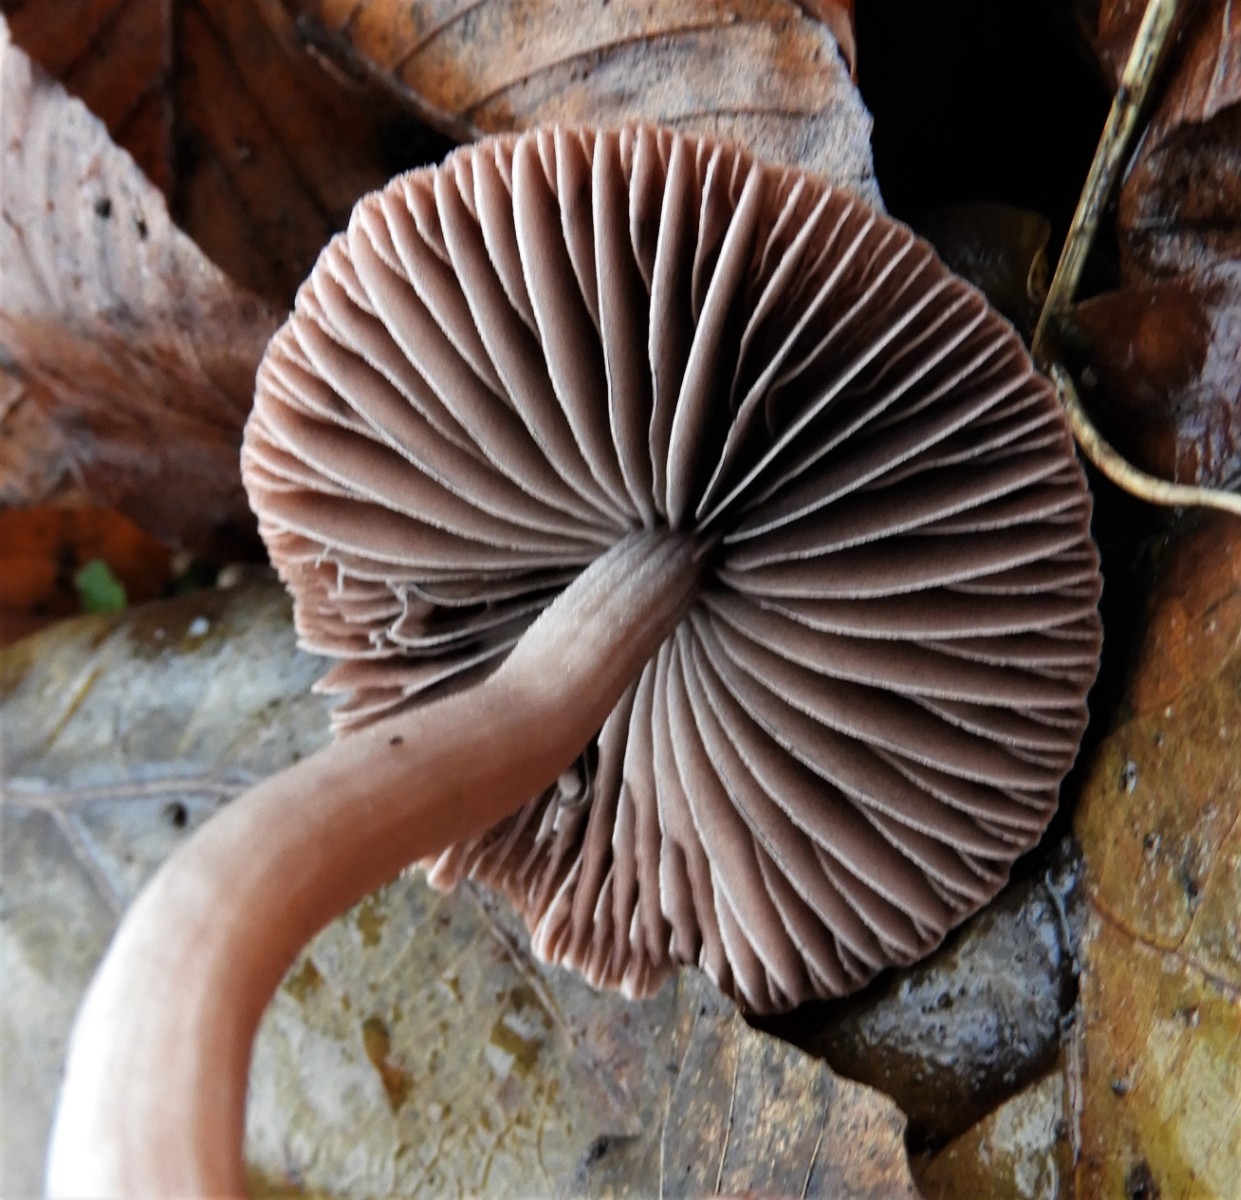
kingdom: Fungi
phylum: Basidiomycota
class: Agaricomycetes
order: Agaricales
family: Psathyrellaceae
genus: Psathyrella
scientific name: Psathyrella bipellis
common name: vinrød mørkhat
